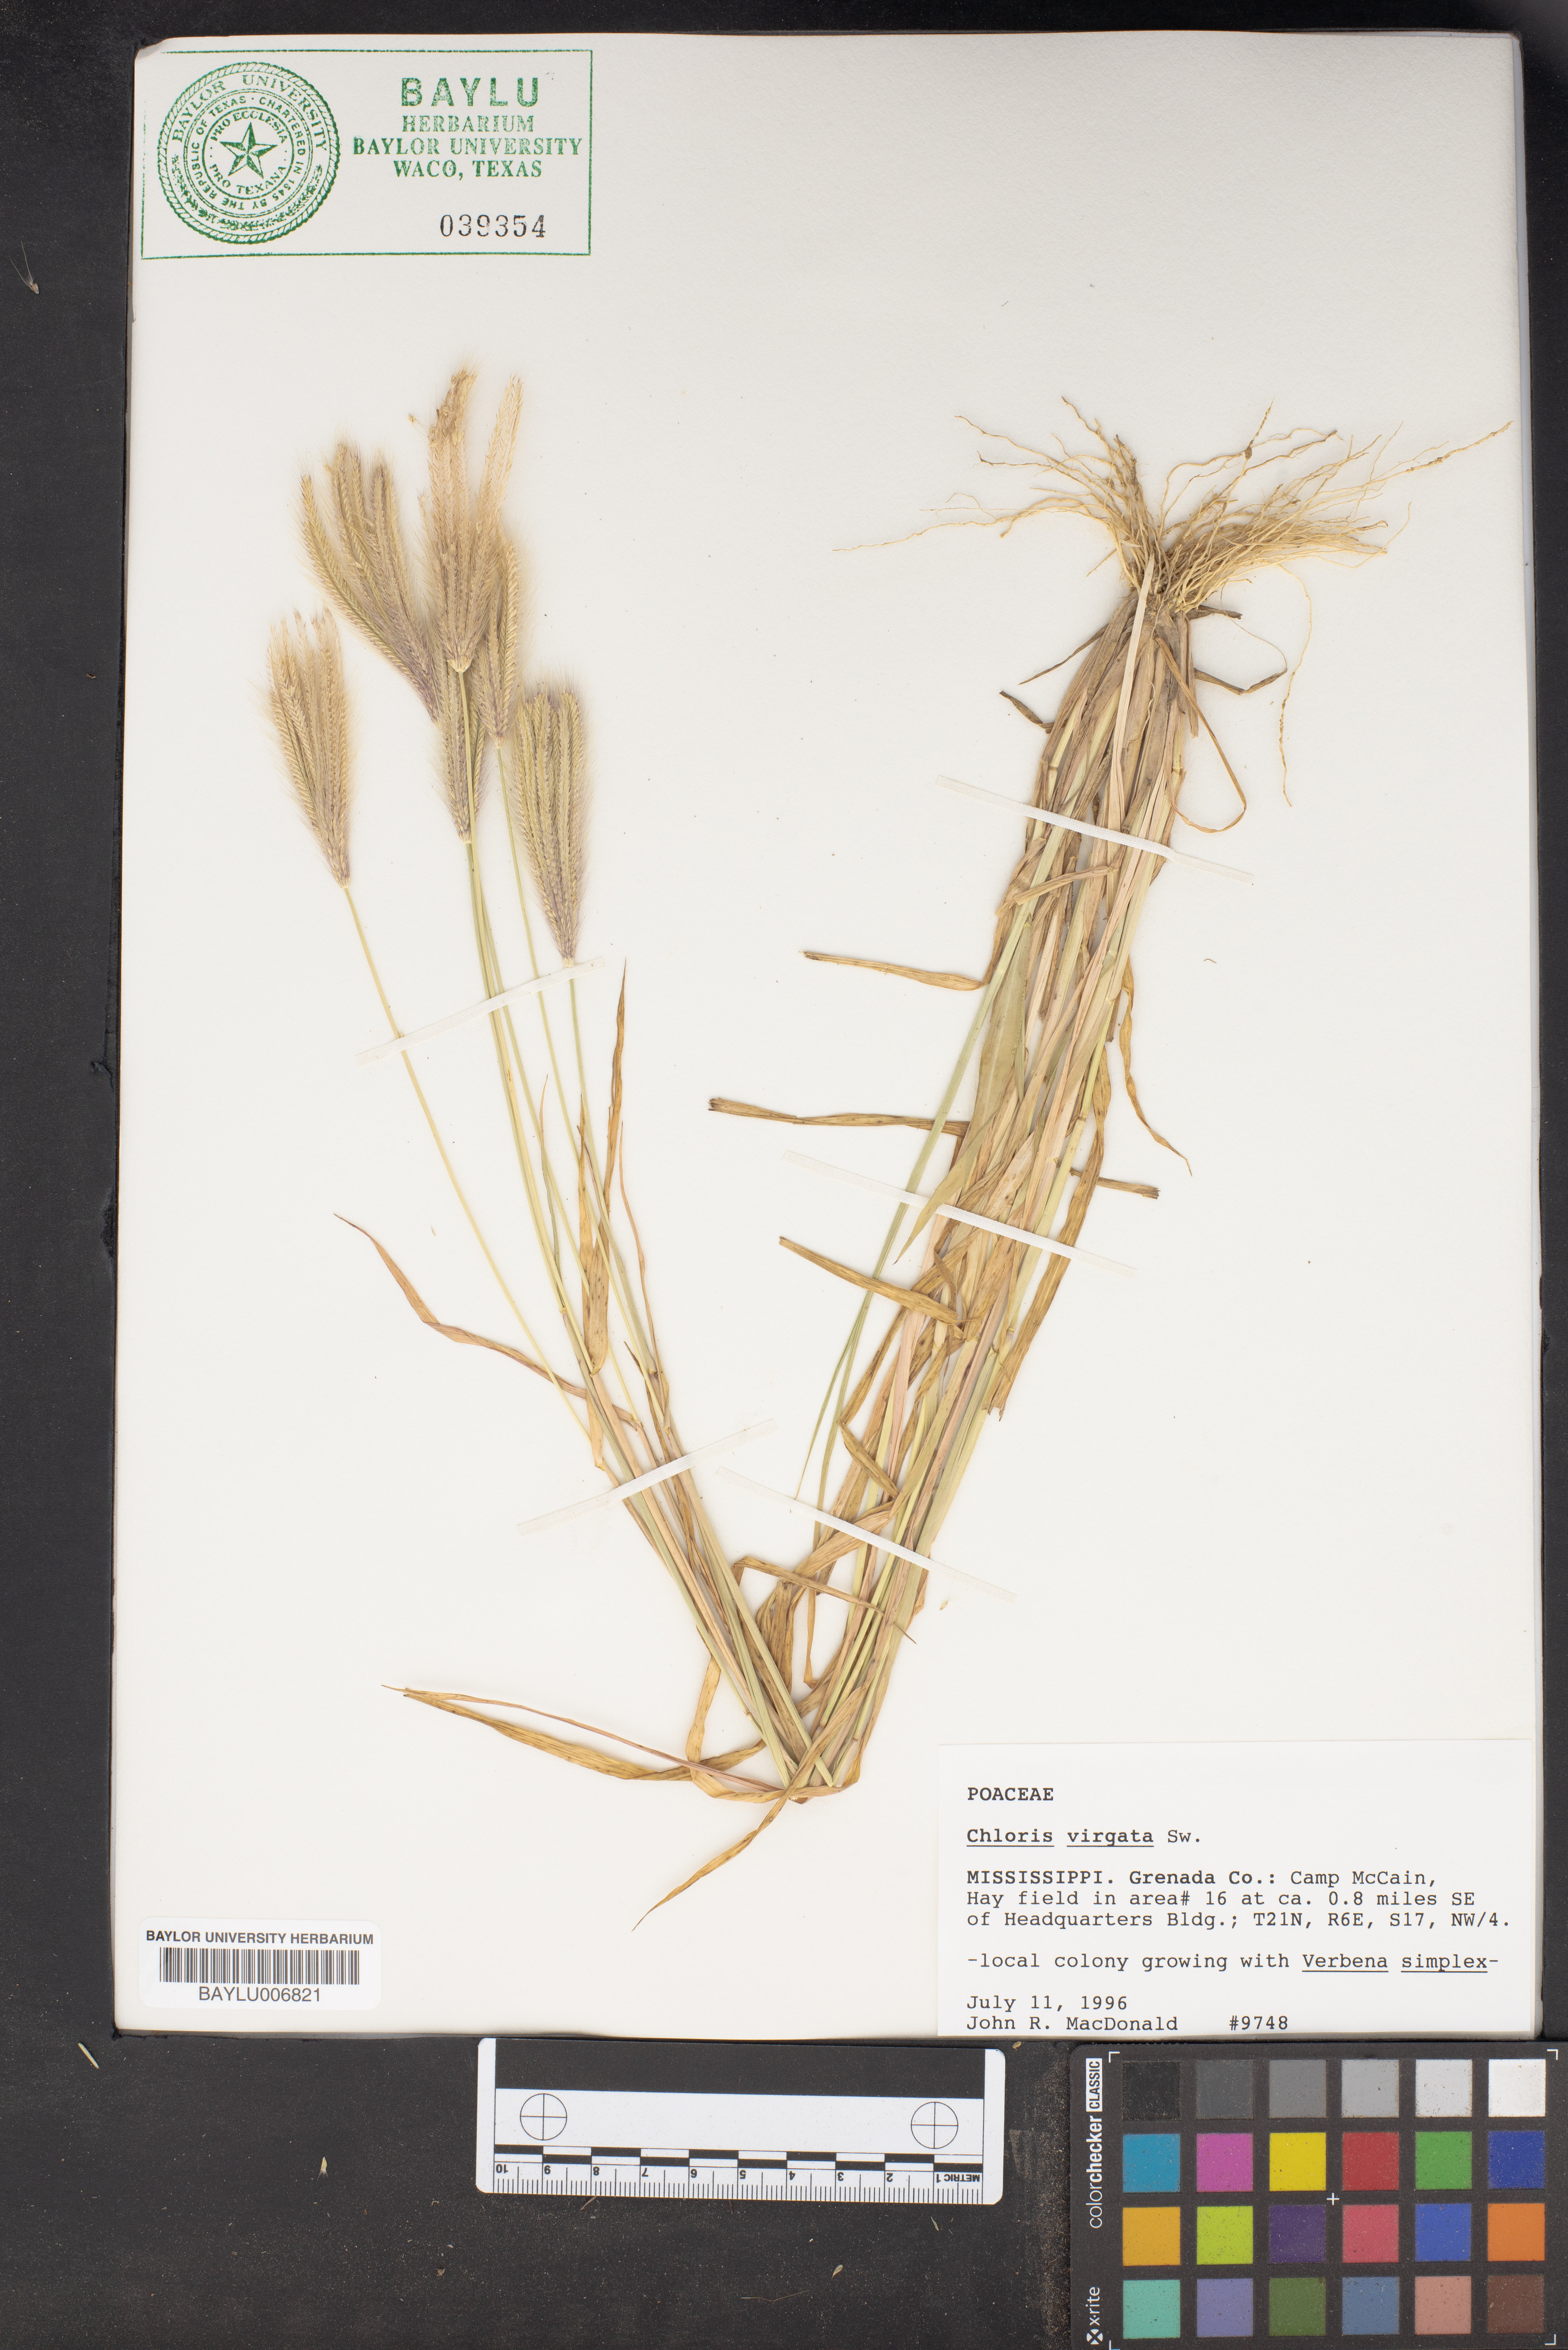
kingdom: Plantae
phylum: Tracheophyta
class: Liliopsida
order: Poales
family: Poaceae
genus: Chloris
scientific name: Chloris virgata
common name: Feathery rhodes-grass
